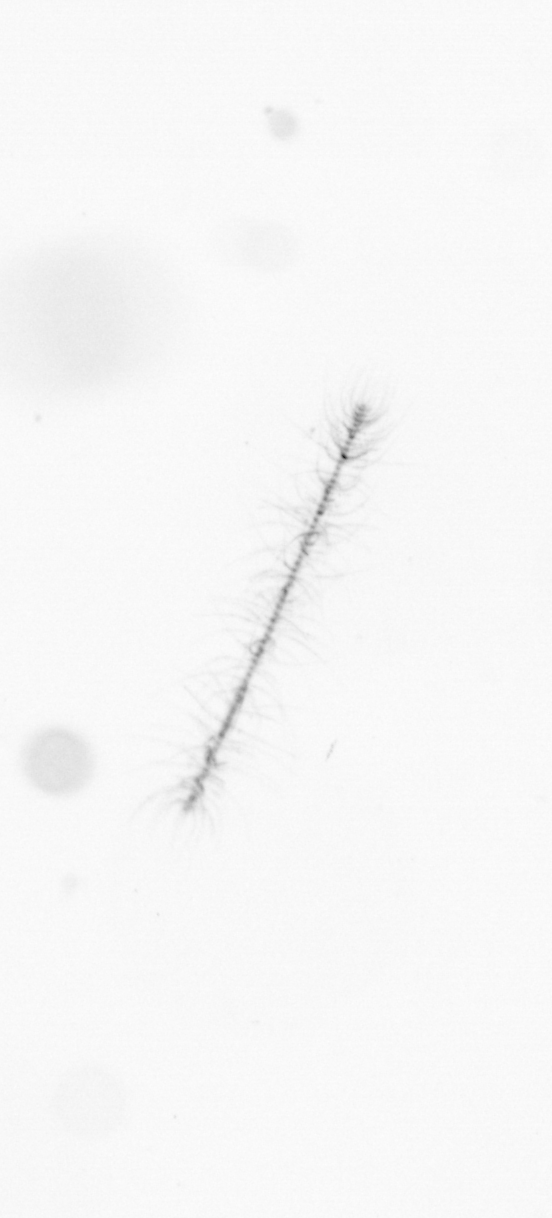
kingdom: Chromista
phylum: Ochrophyta
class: Bacillariophyceae
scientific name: Bacillariophyceae
